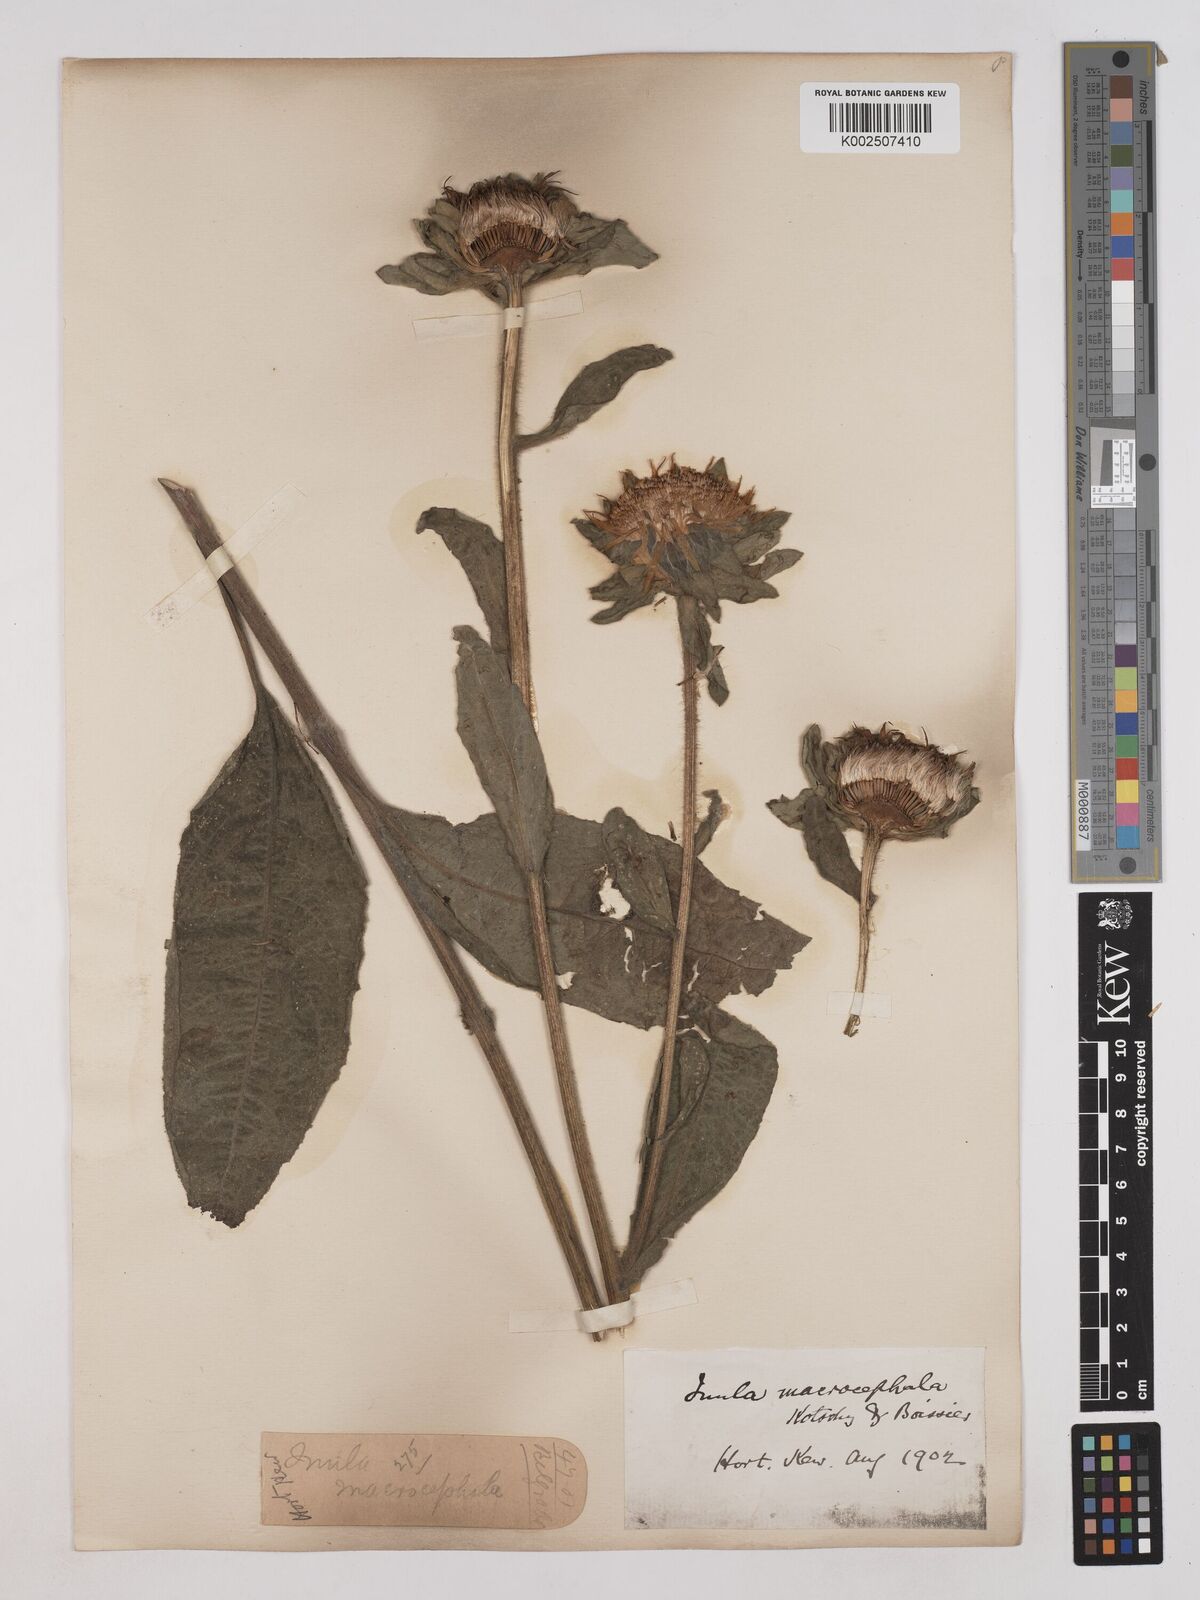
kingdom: Plantae
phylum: Tracheophyta
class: Magnoliopsida
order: Asterales
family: Asteraceae
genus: Inula
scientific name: Inula macrocephala
